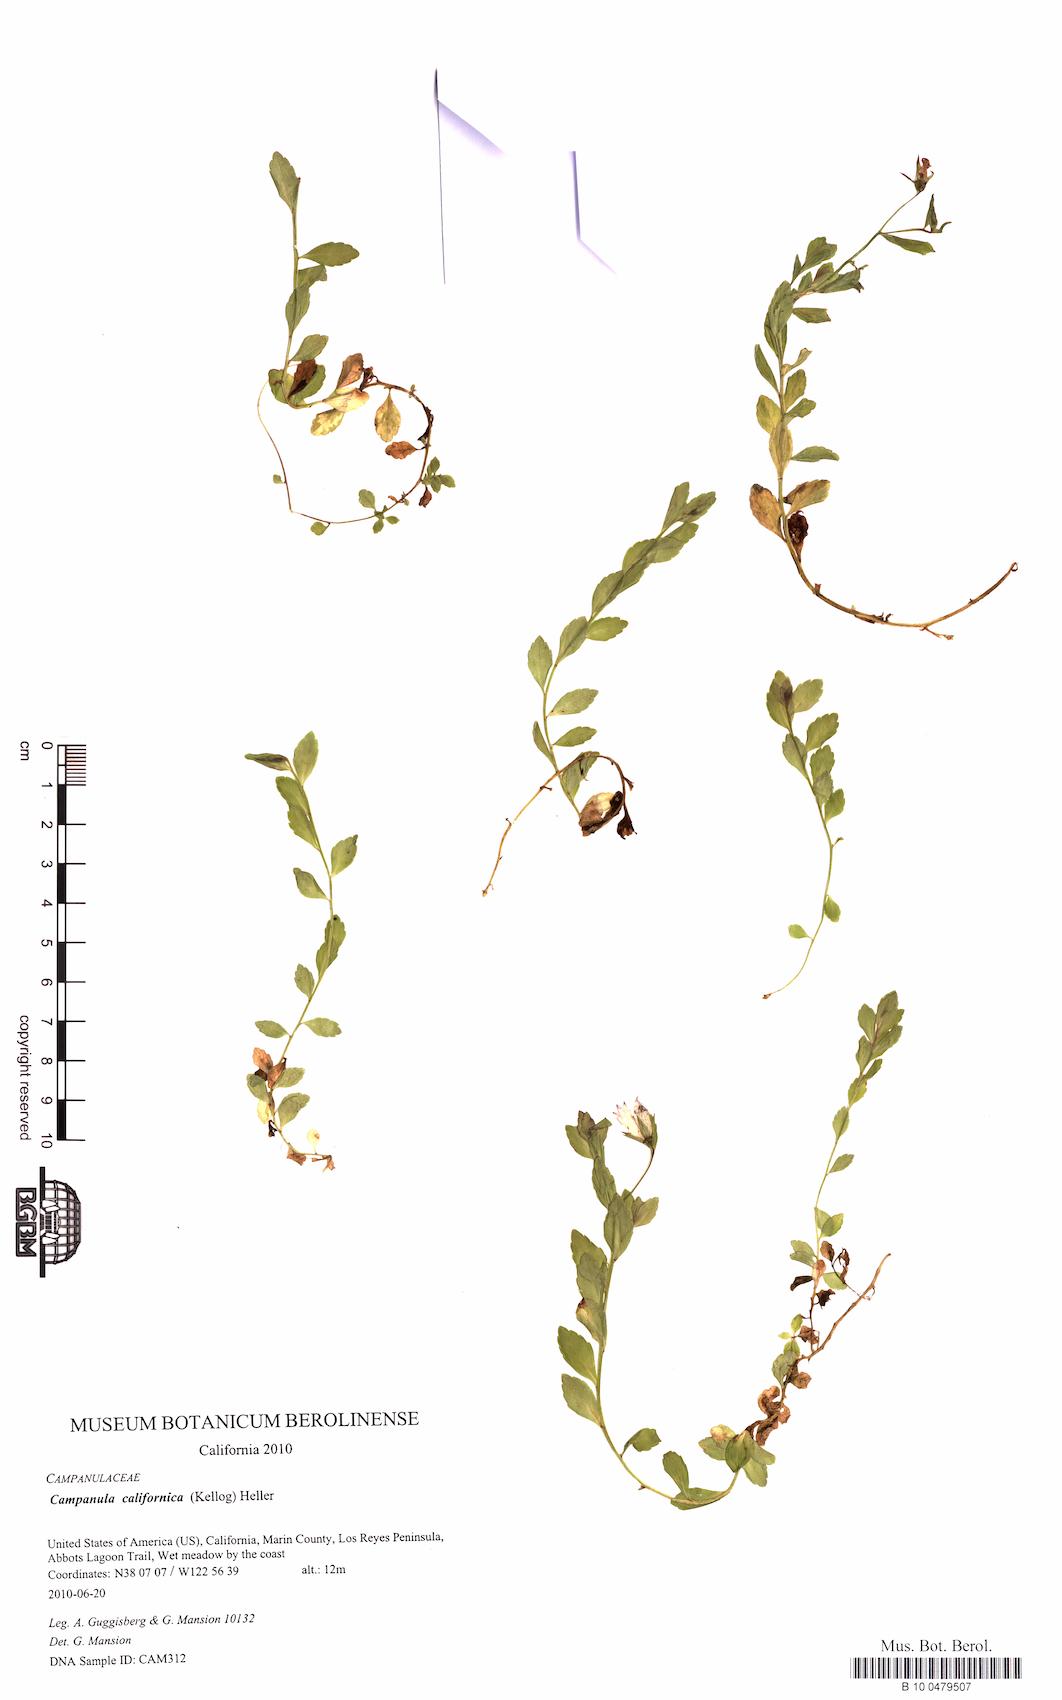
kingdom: Plantae
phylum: Tracheophyta
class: Magnoliopsida
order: Asterales
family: Campanulaceae
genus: Eastwoodiella
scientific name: Eastwoodiella californica
